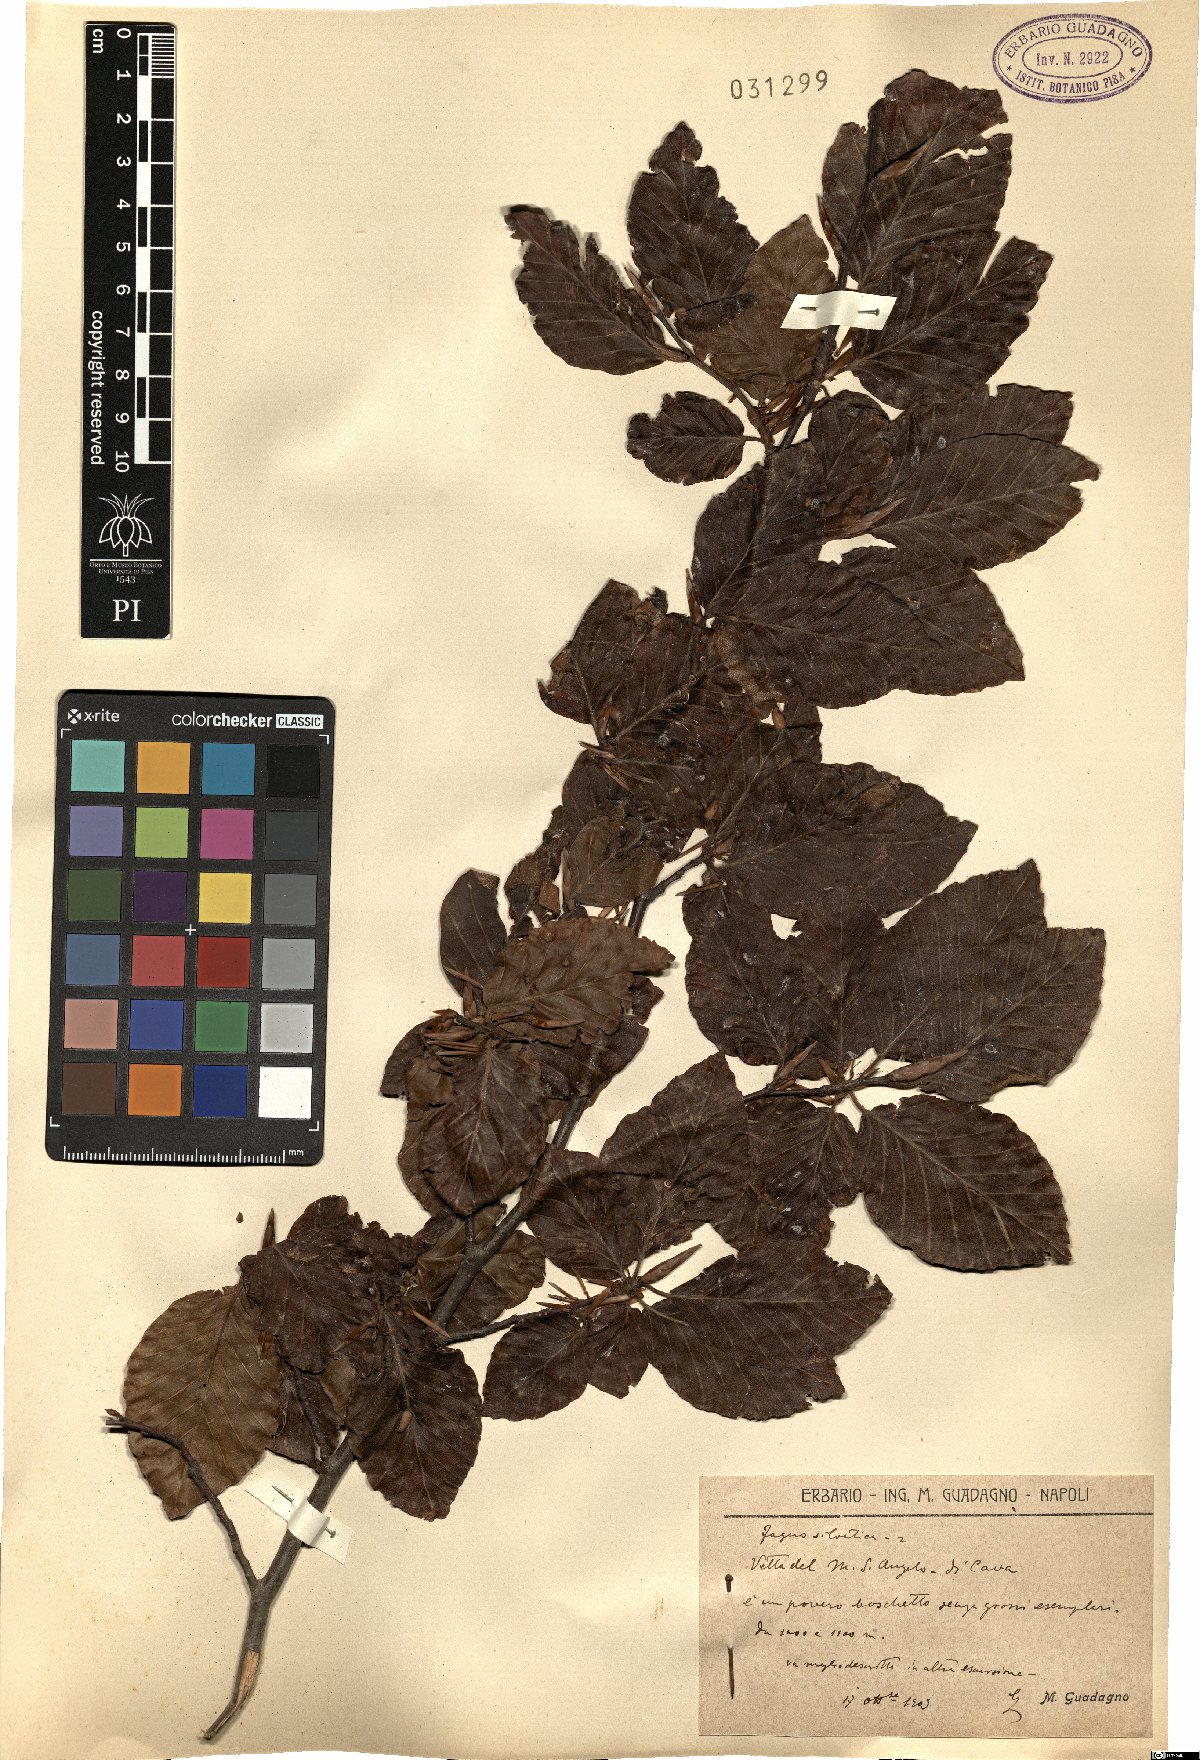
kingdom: Plantae
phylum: Tracheophyta
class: Magnoliopsida
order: Fagales
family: Fagaceae
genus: Fagus
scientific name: Fagus sylvatica
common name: Beech
